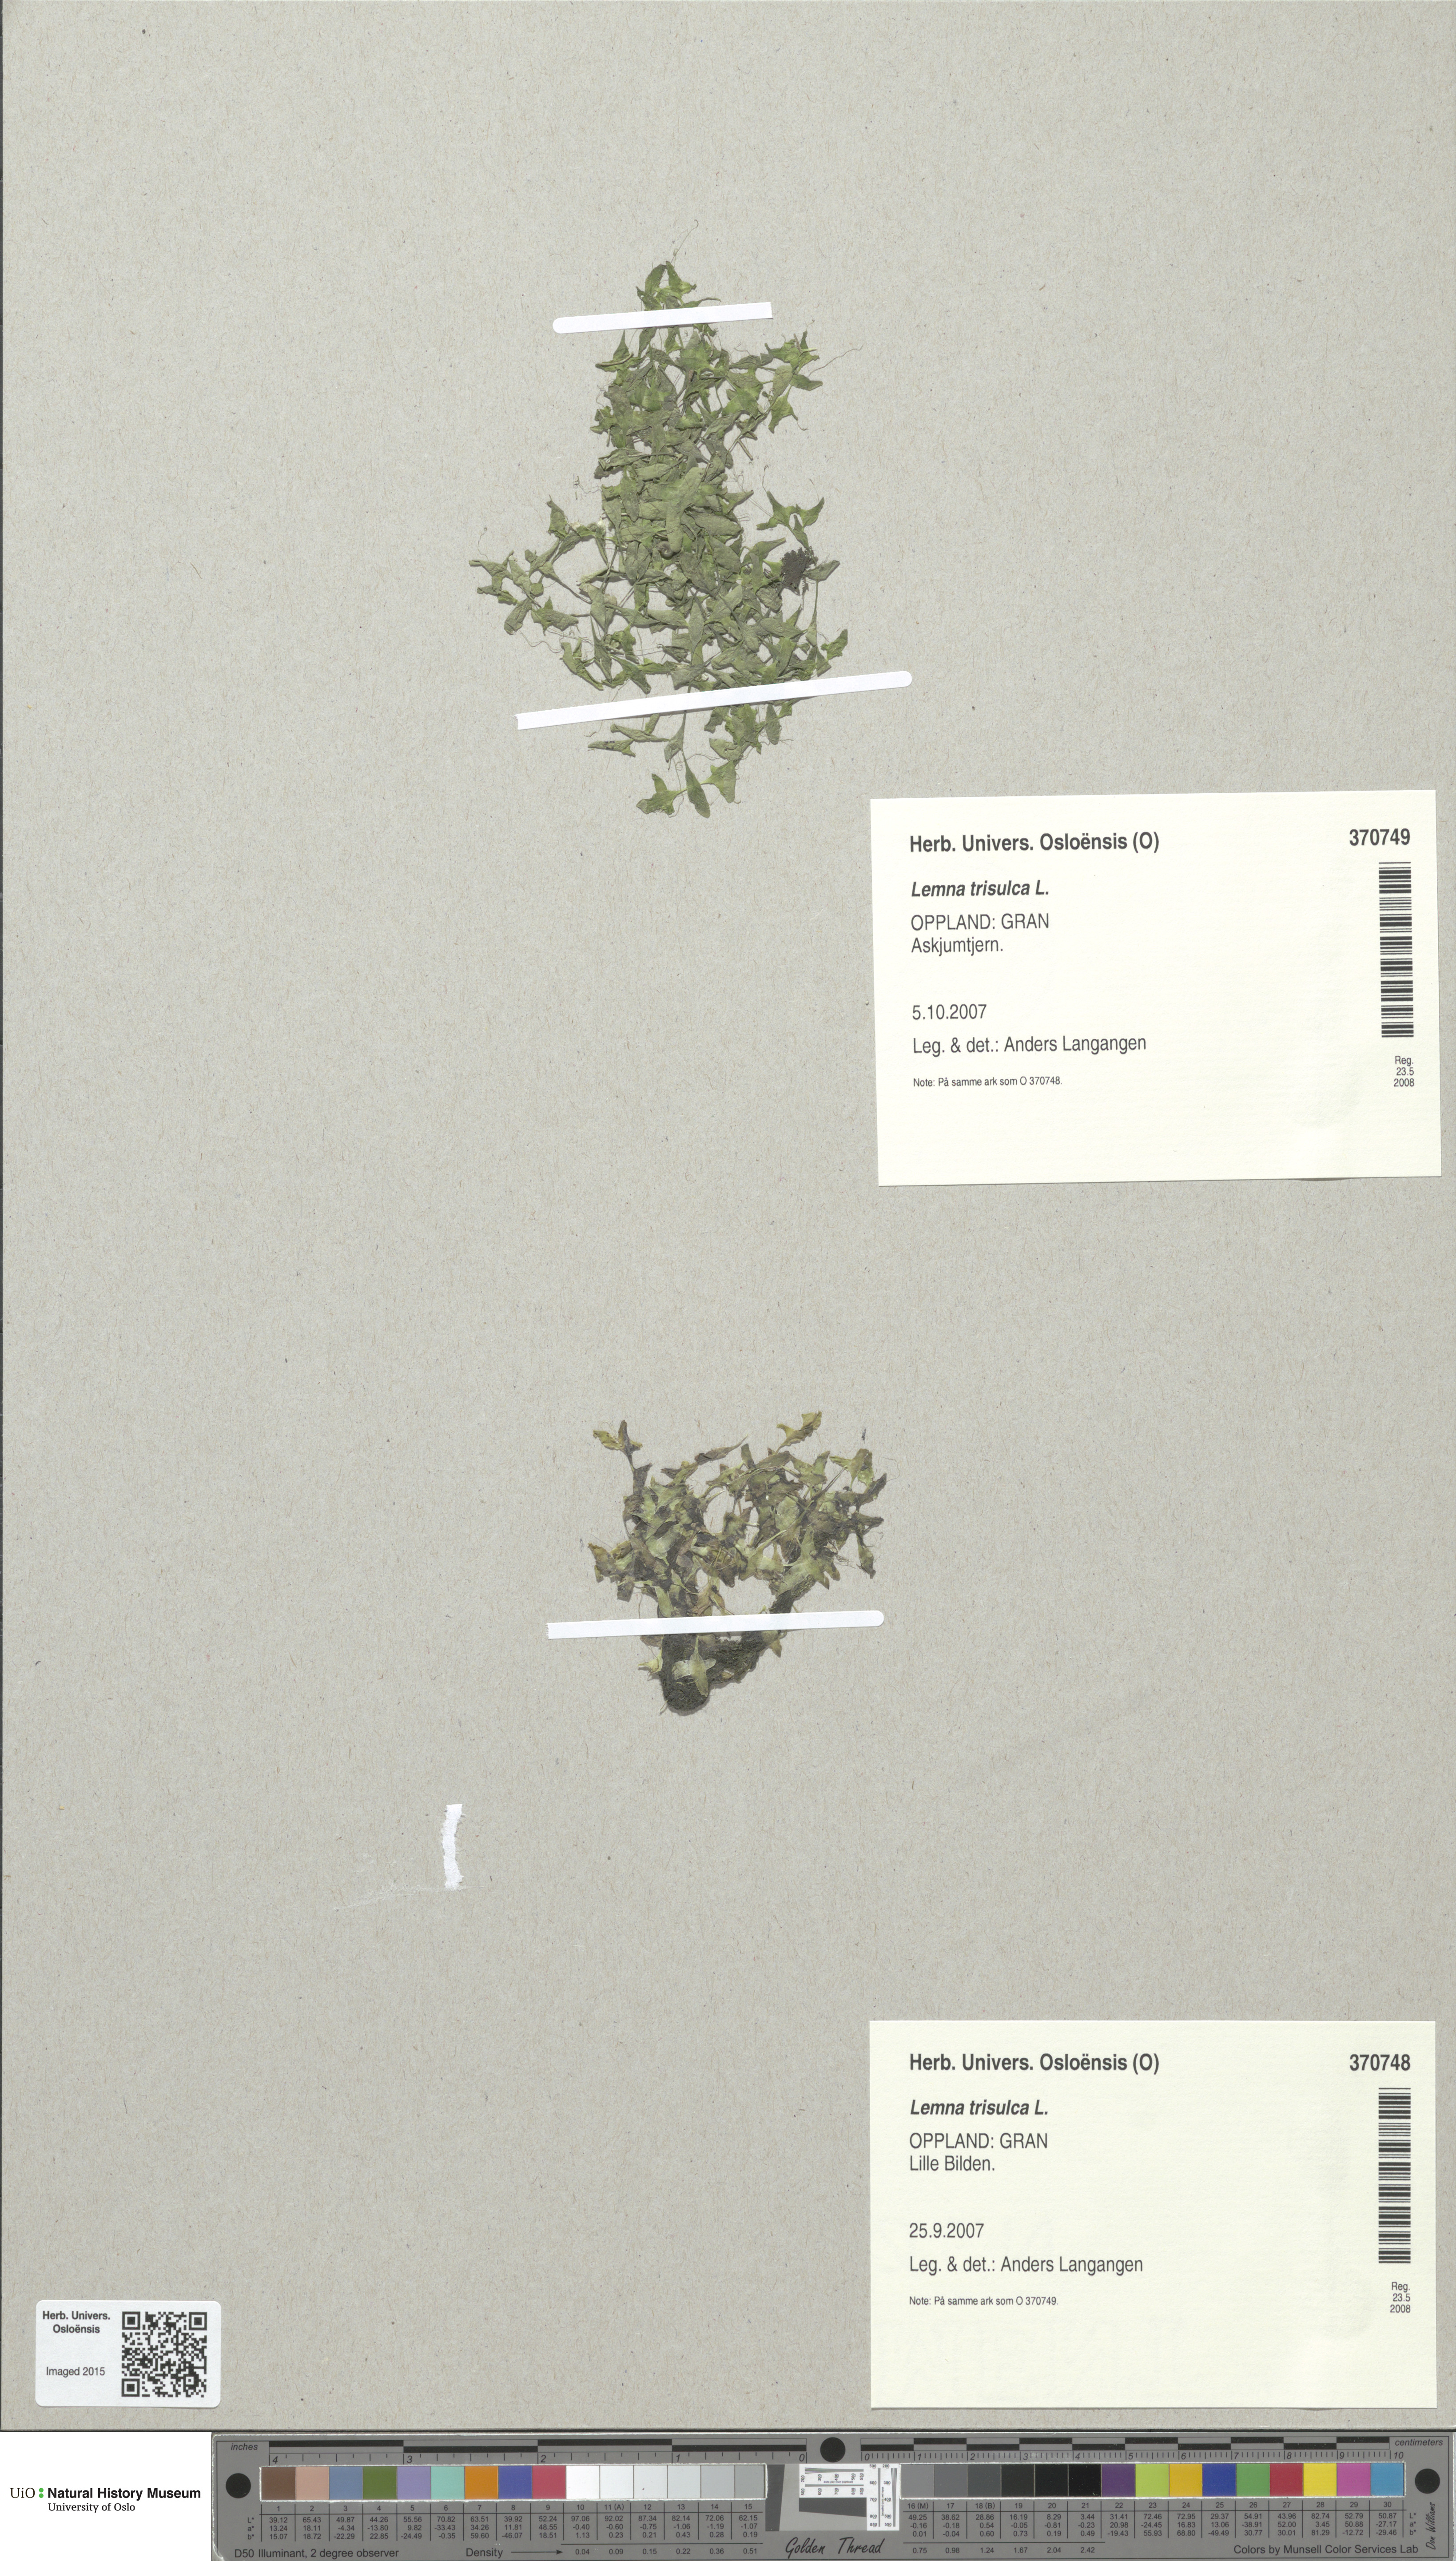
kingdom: Plantae
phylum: Tracheophyta
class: Liliopsida
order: Alismatales
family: Araceae
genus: Lemna
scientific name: Lemna trisulca
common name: Ivy-leaved duckweed
